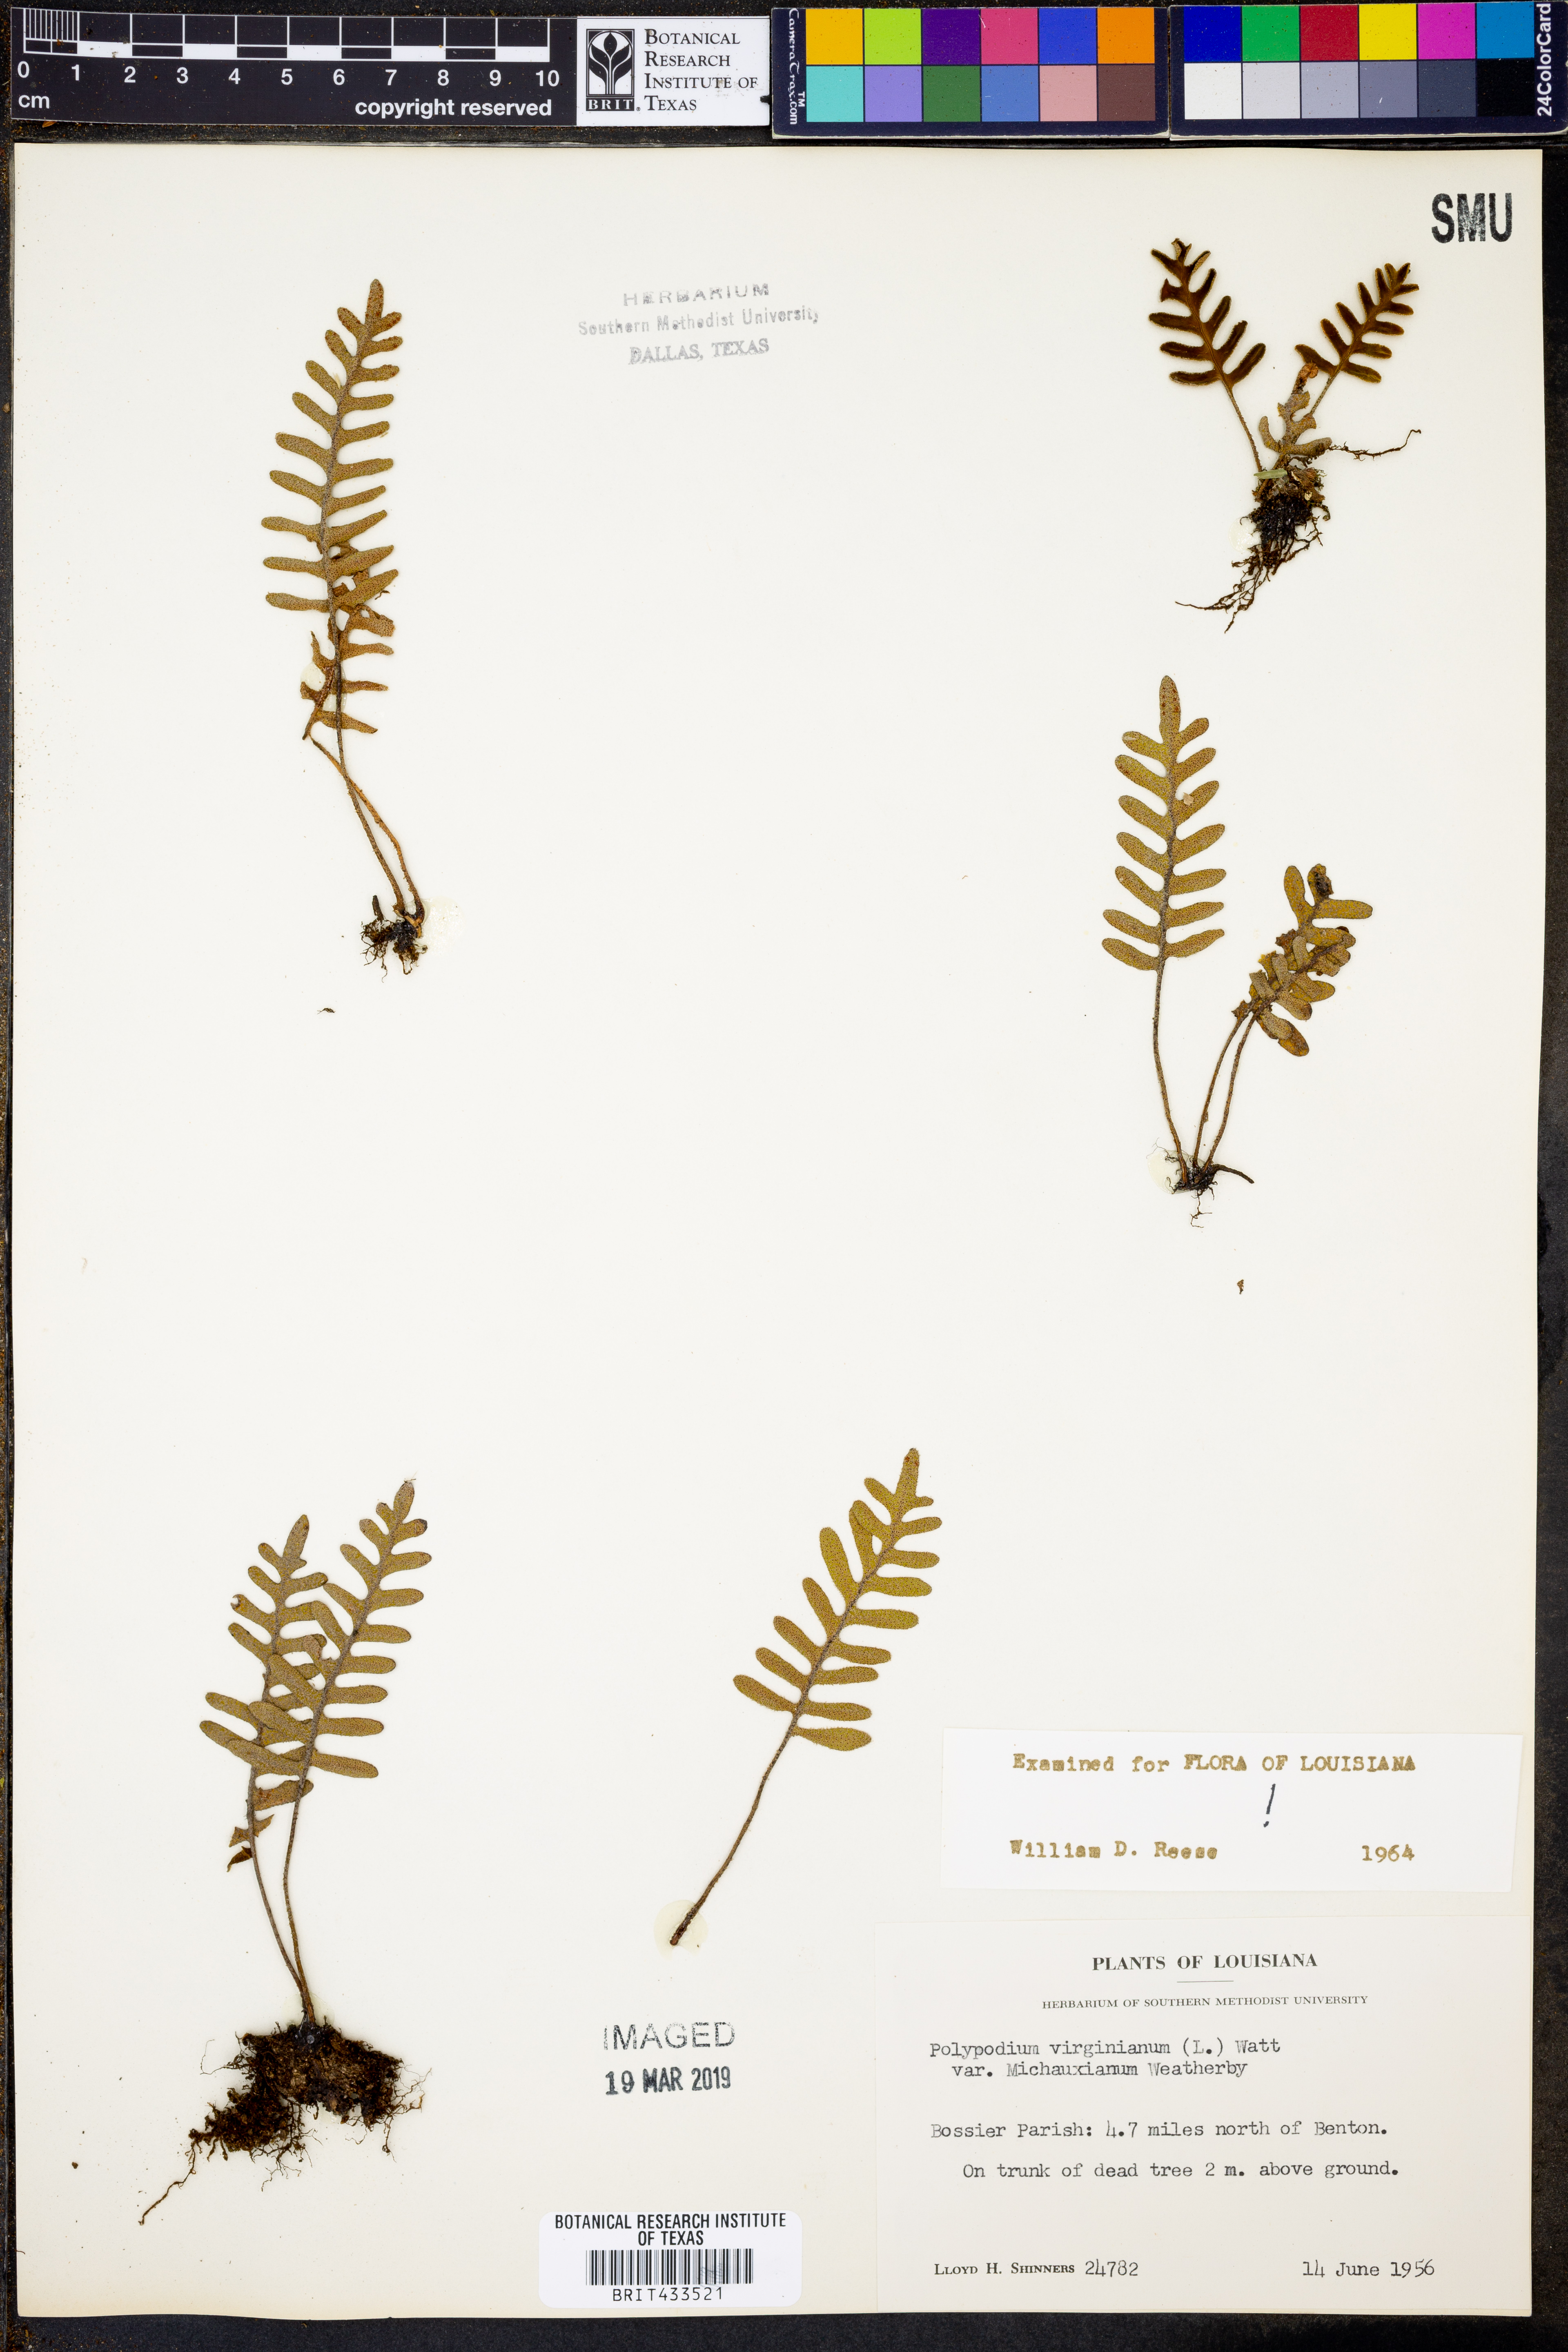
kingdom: Plantae
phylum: Tracheophyta
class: Polypodiopsida
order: Polypodiales
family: Polypodiaceae
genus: Polypodium
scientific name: Polypodium virginianum
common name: American wall fern
